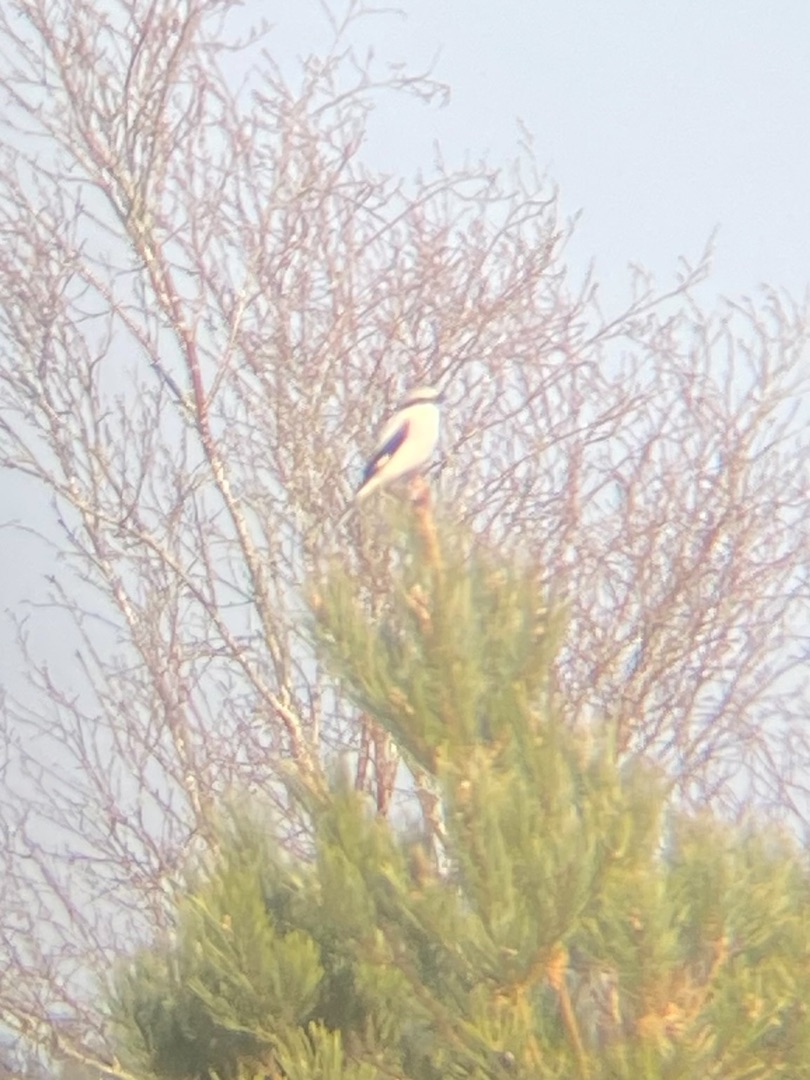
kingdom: Animalia
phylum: Chordata
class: Aves
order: Passeriformes
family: Laniidae
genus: Lanius
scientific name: Lanius excubitor
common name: Stor tornskade
